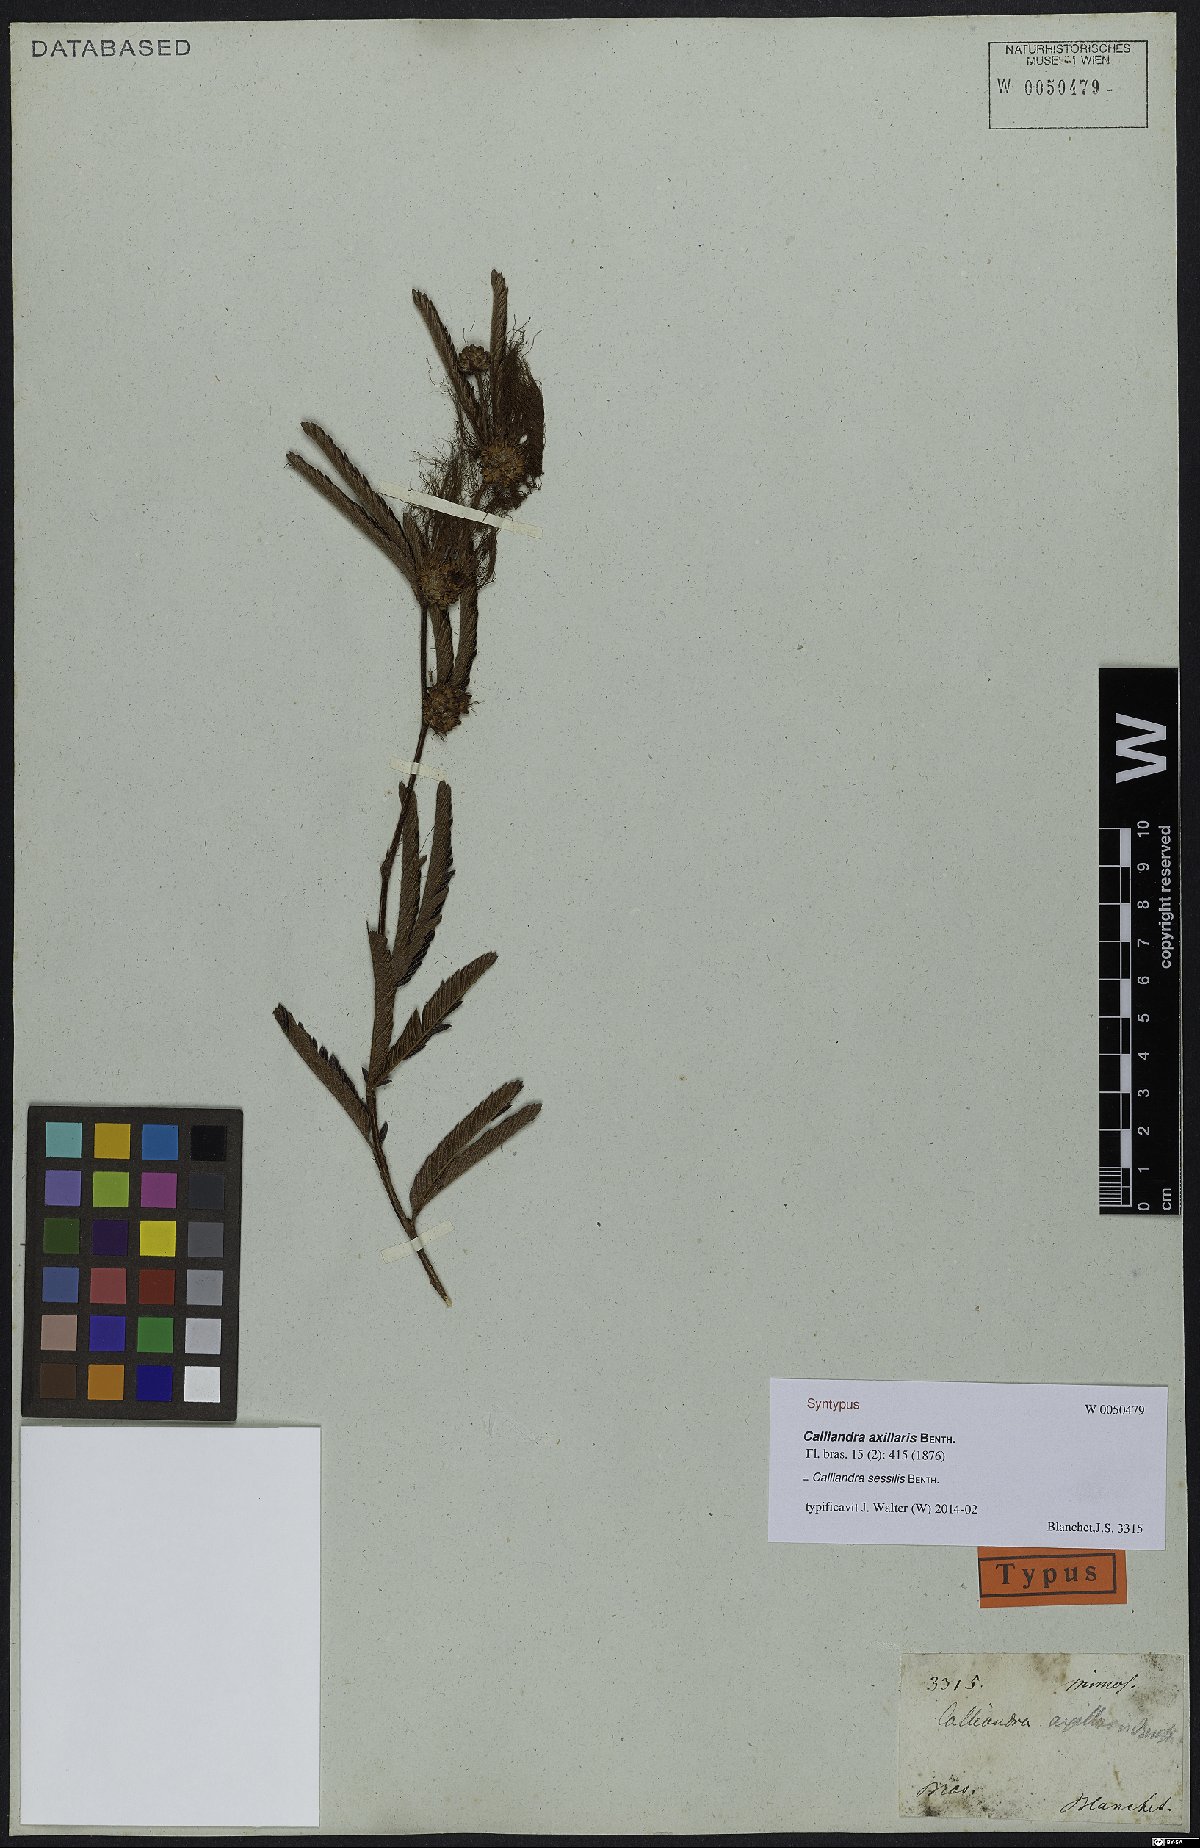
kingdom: Plantae
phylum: Tracheophyta
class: Magnoliopsida
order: Fabales
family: Fabaceae
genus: Calliandra
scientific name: Calliandra sessilis
